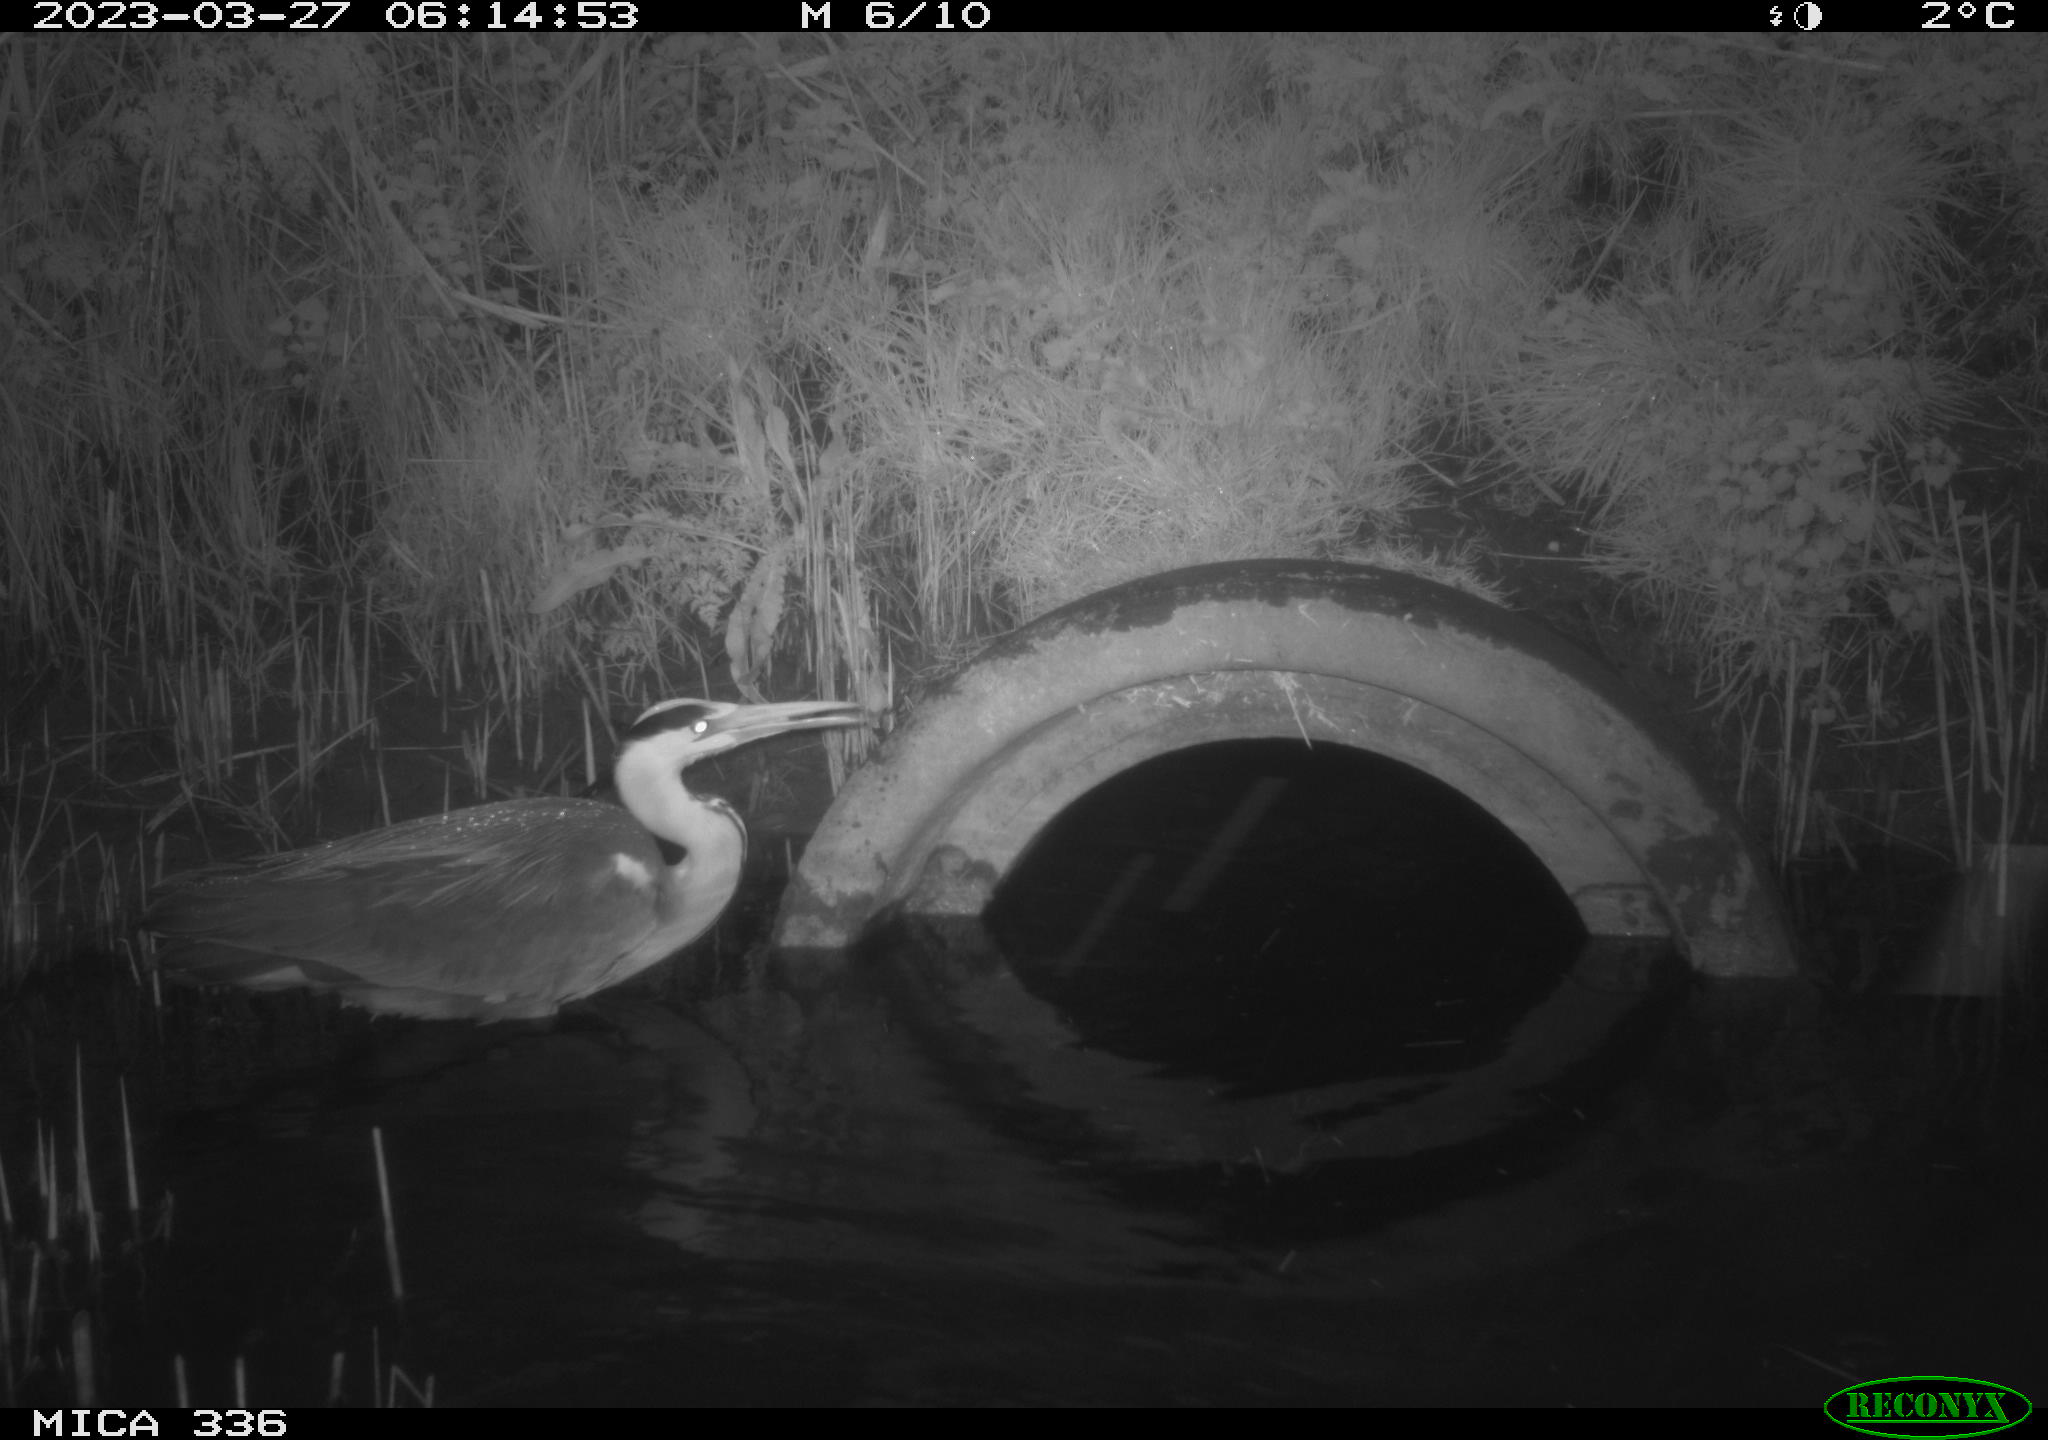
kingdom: Animalia
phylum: Chordata
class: Aves
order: Pelecaniformes
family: Ardeidae
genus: Ardea
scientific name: Ardea
